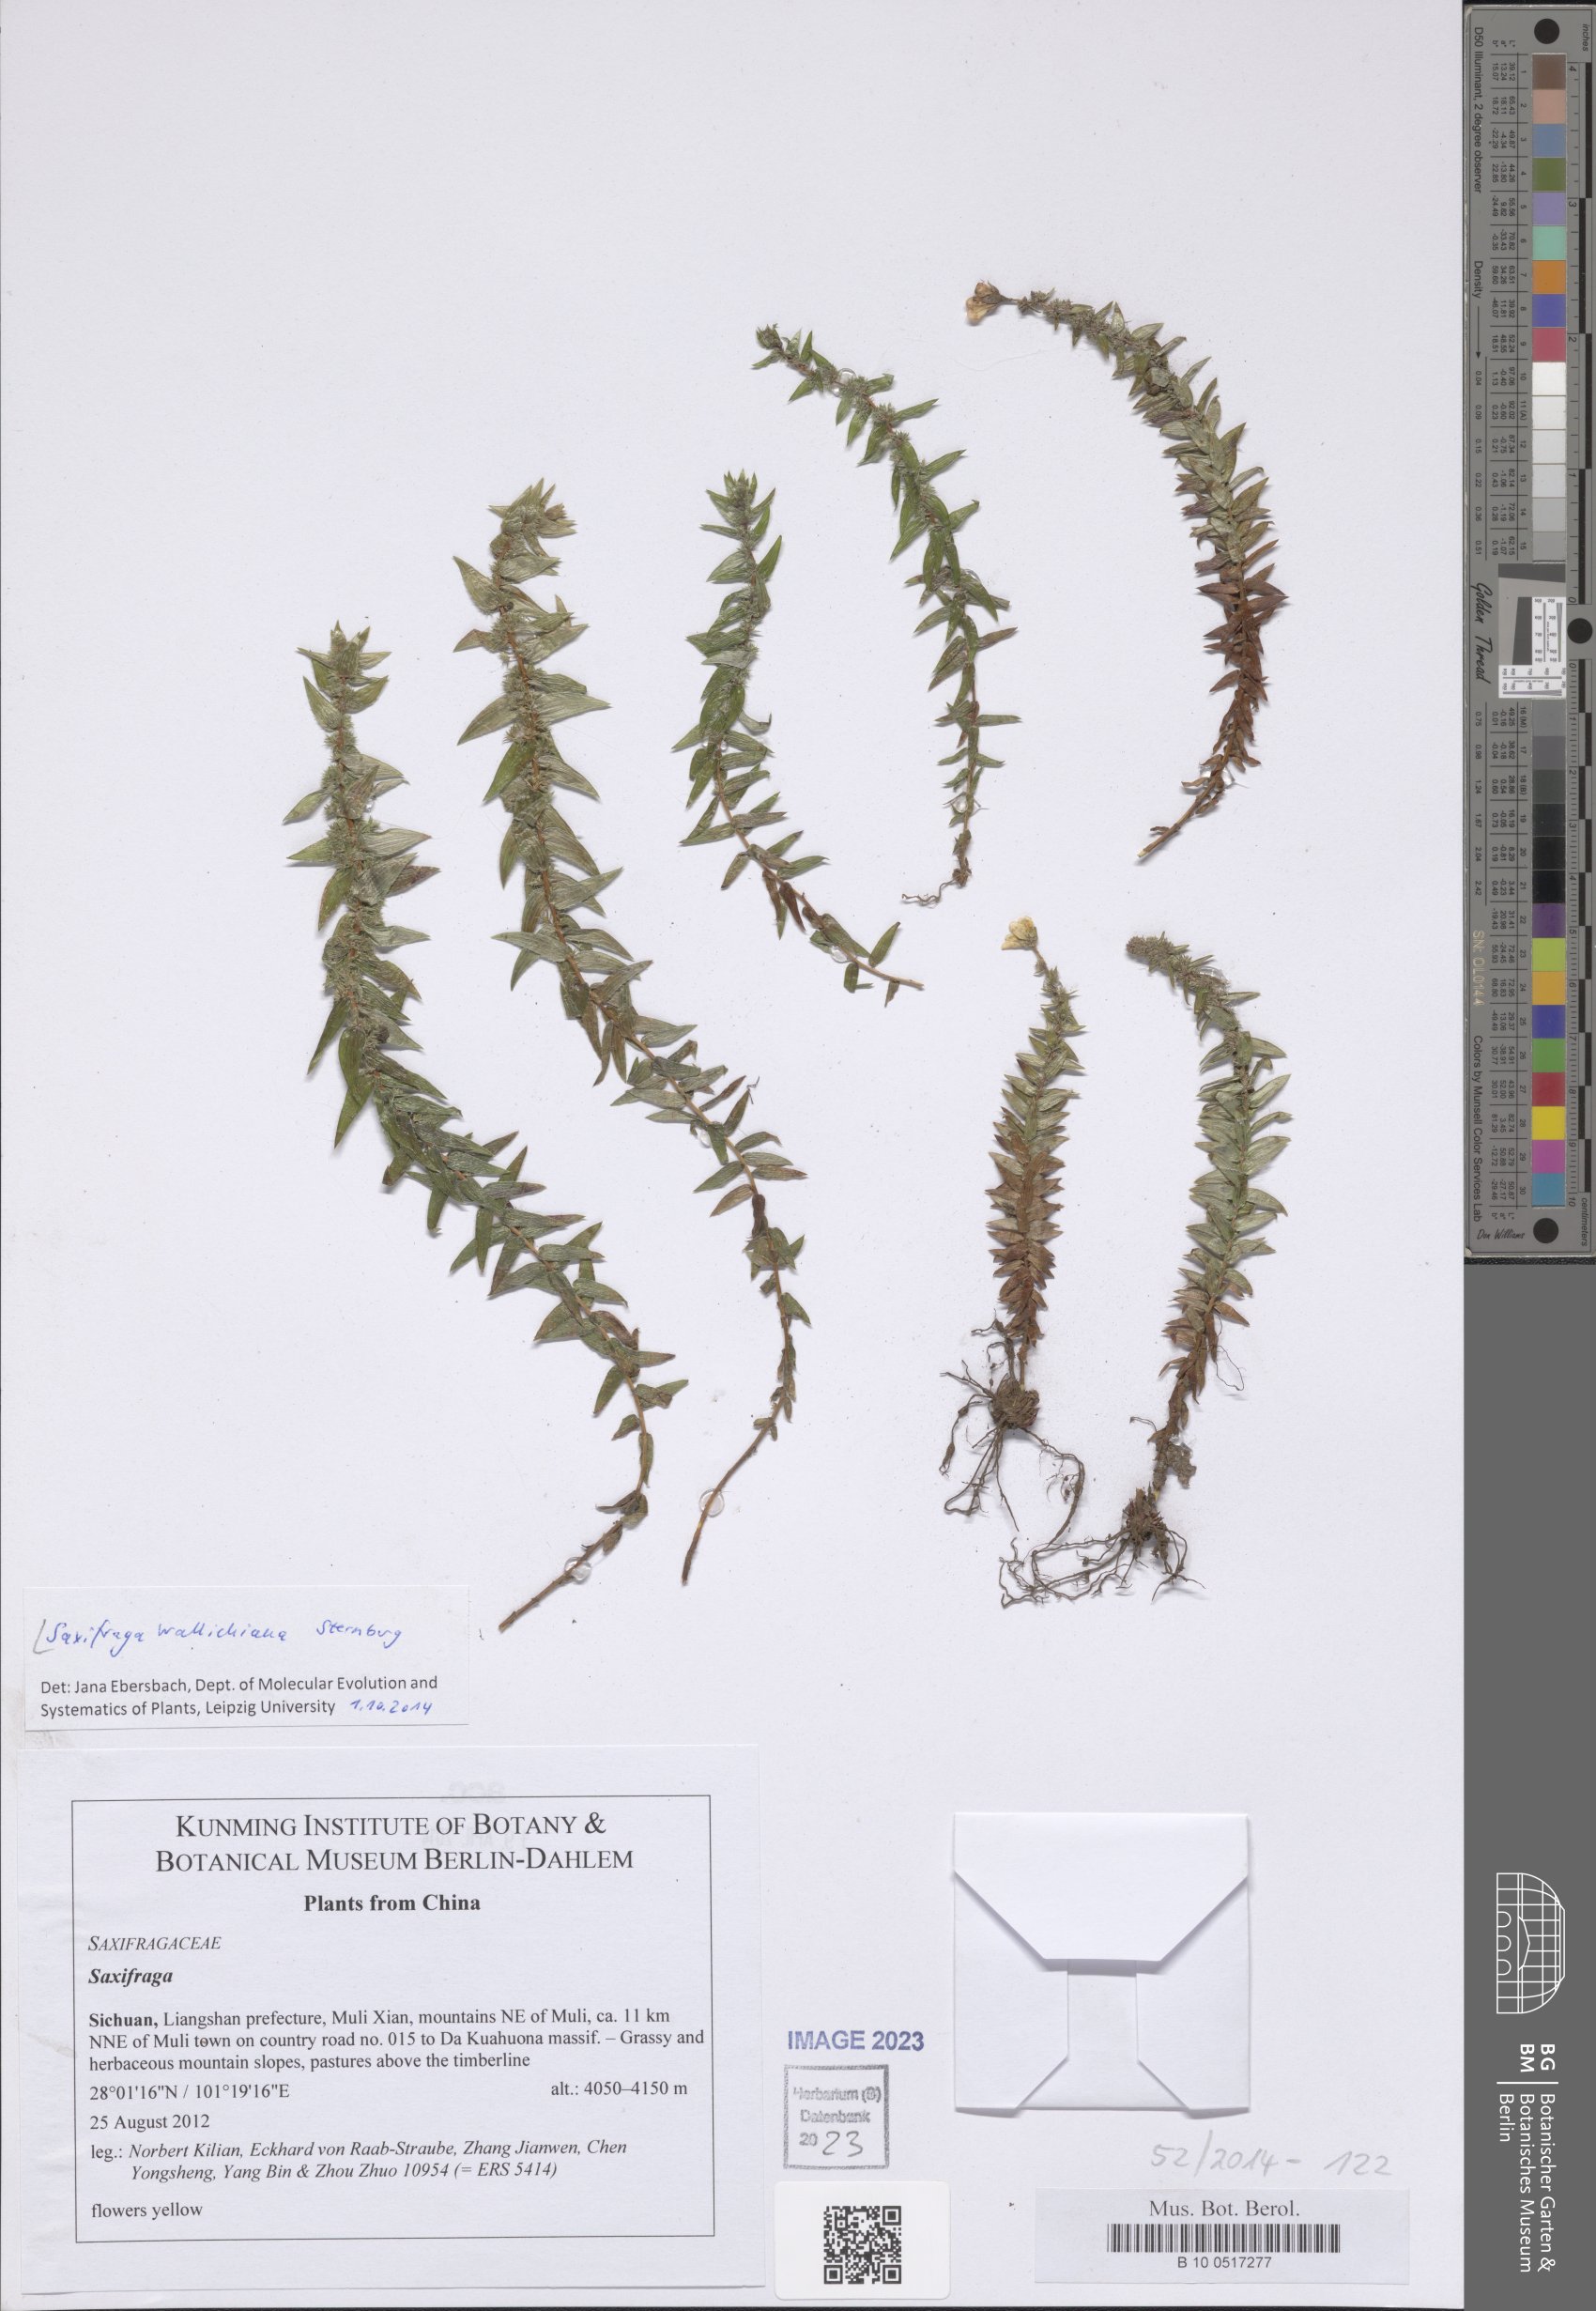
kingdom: Plantae
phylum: Tracheophyta
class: Magnoliopsida
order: Saxifragales
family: Saxifragaceae
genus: Saxifraga
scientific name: Saxifraga wallichiana
